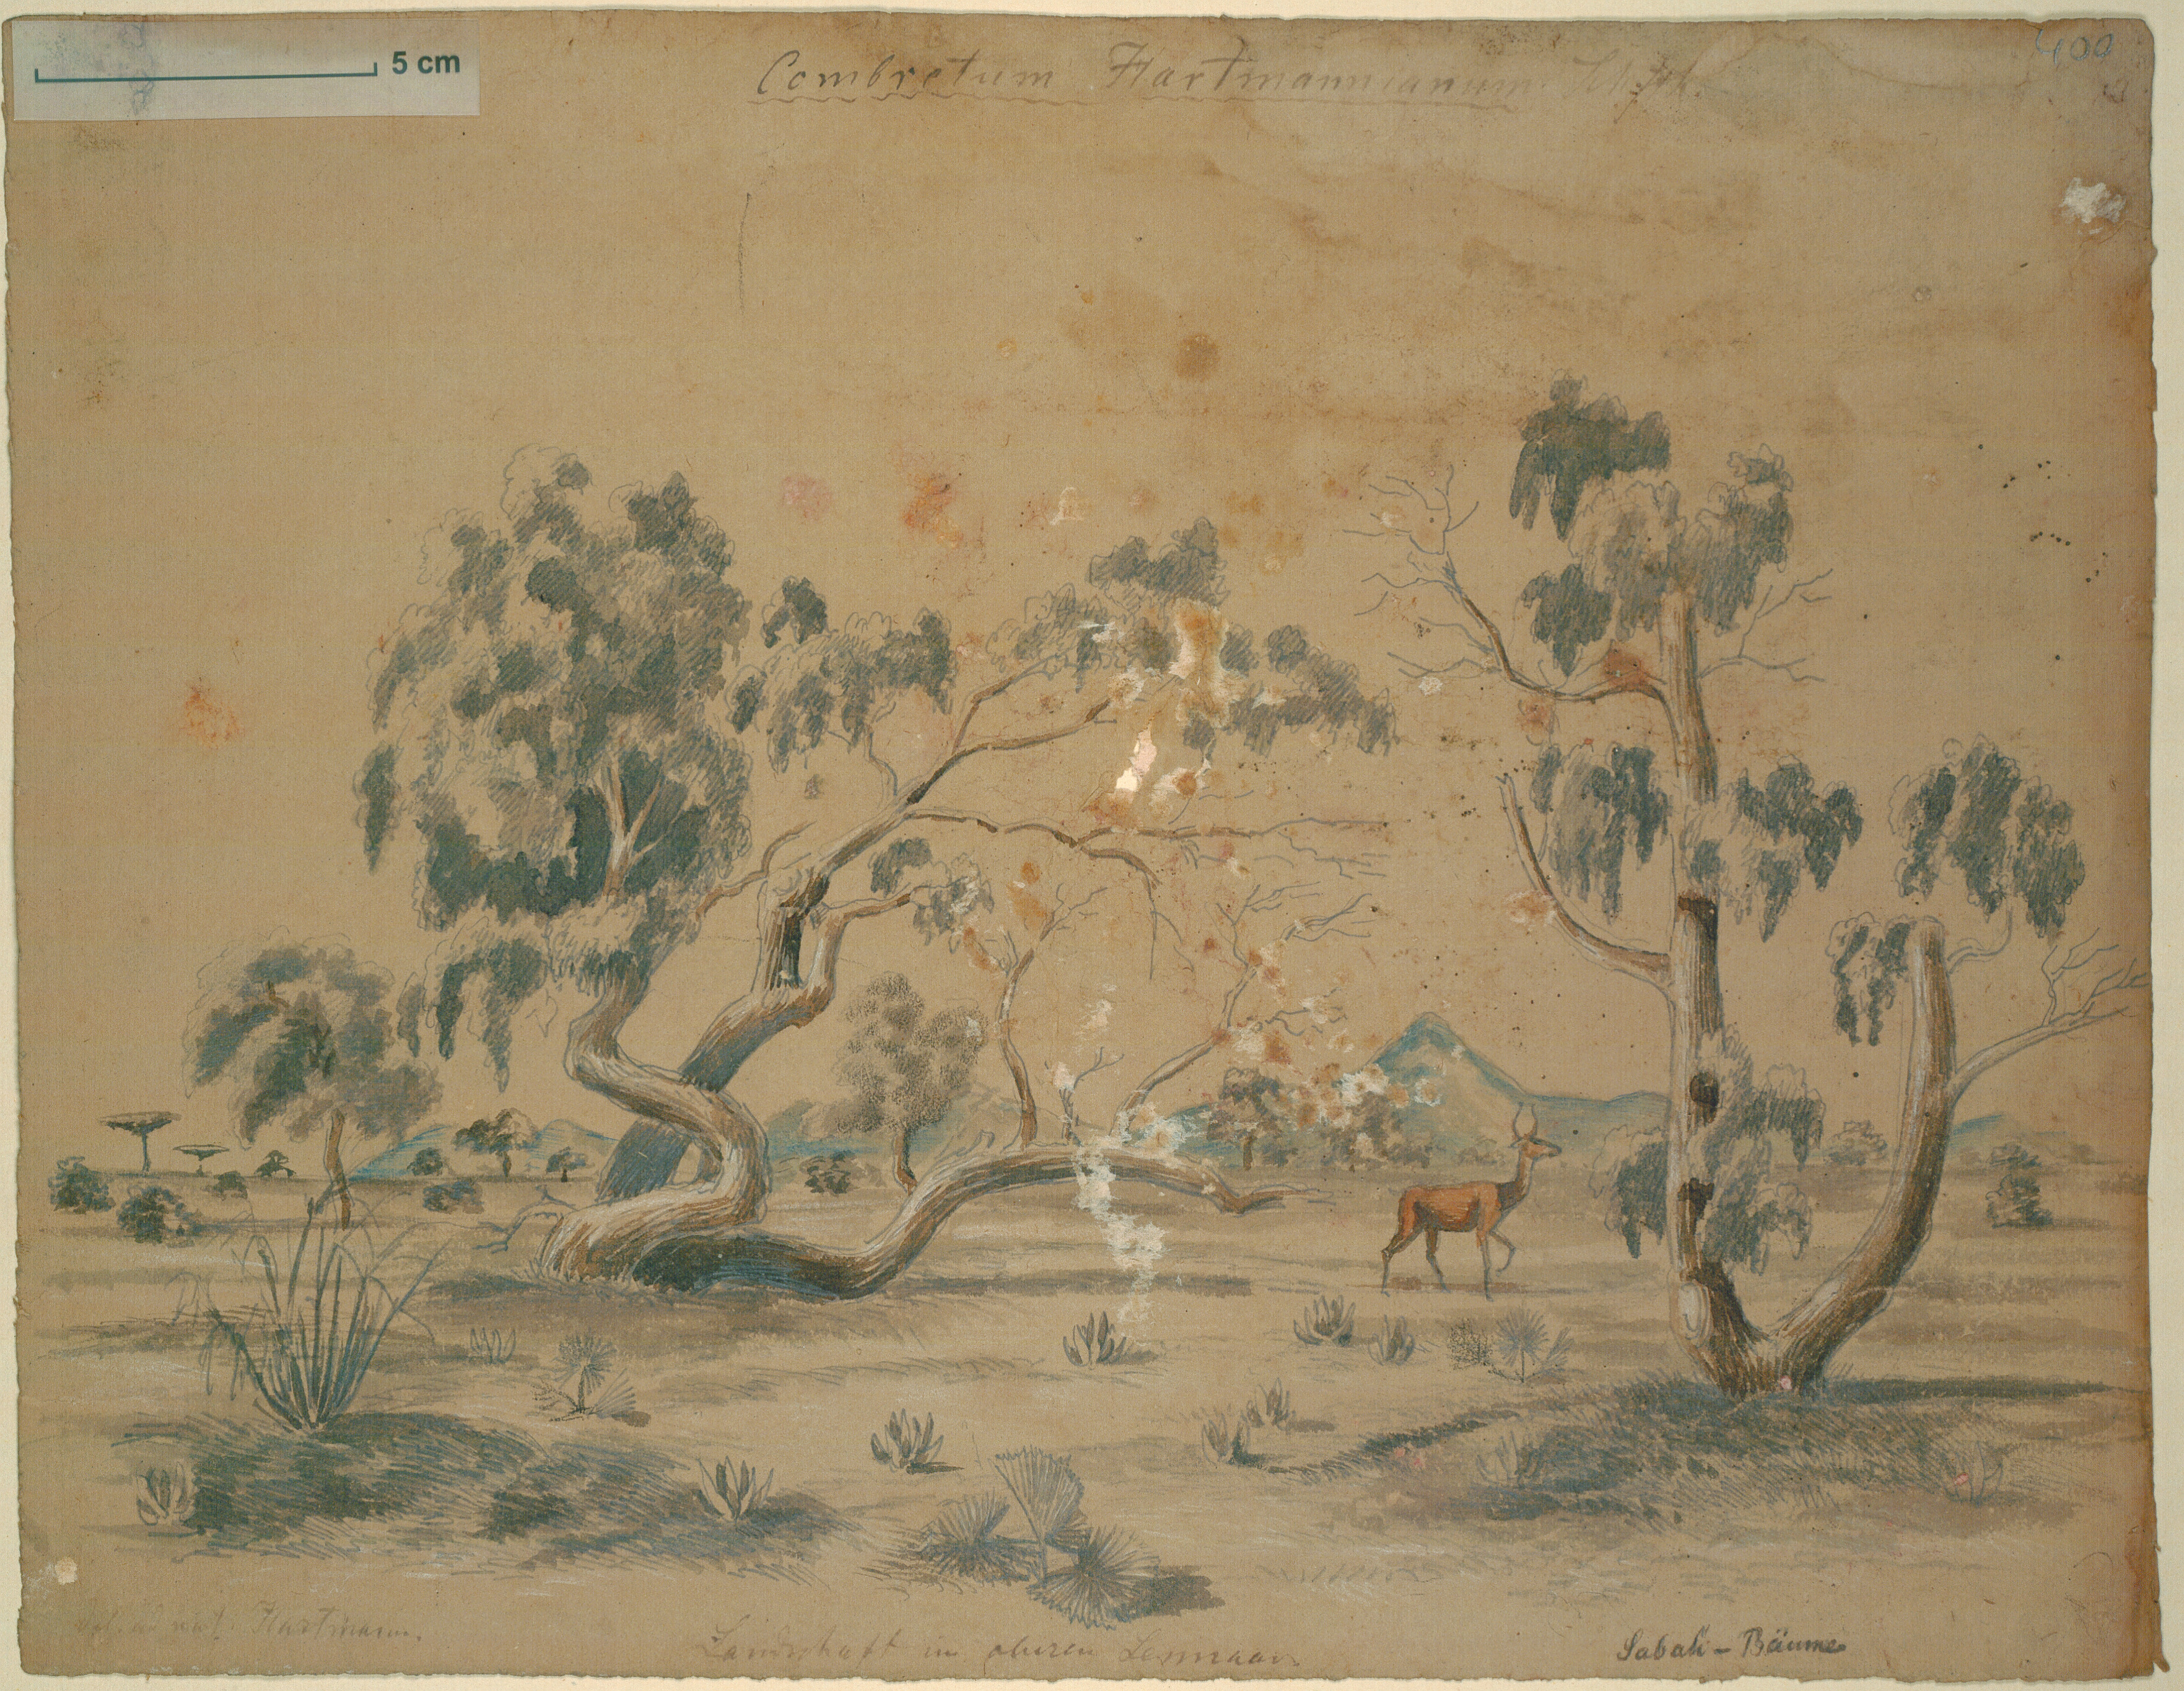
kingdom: Plantae
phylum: Tracheophyta
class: Magnoliopsida
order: Myrtales
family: Combretaceae
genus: Combretum
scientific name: Combretum hartmannianum
